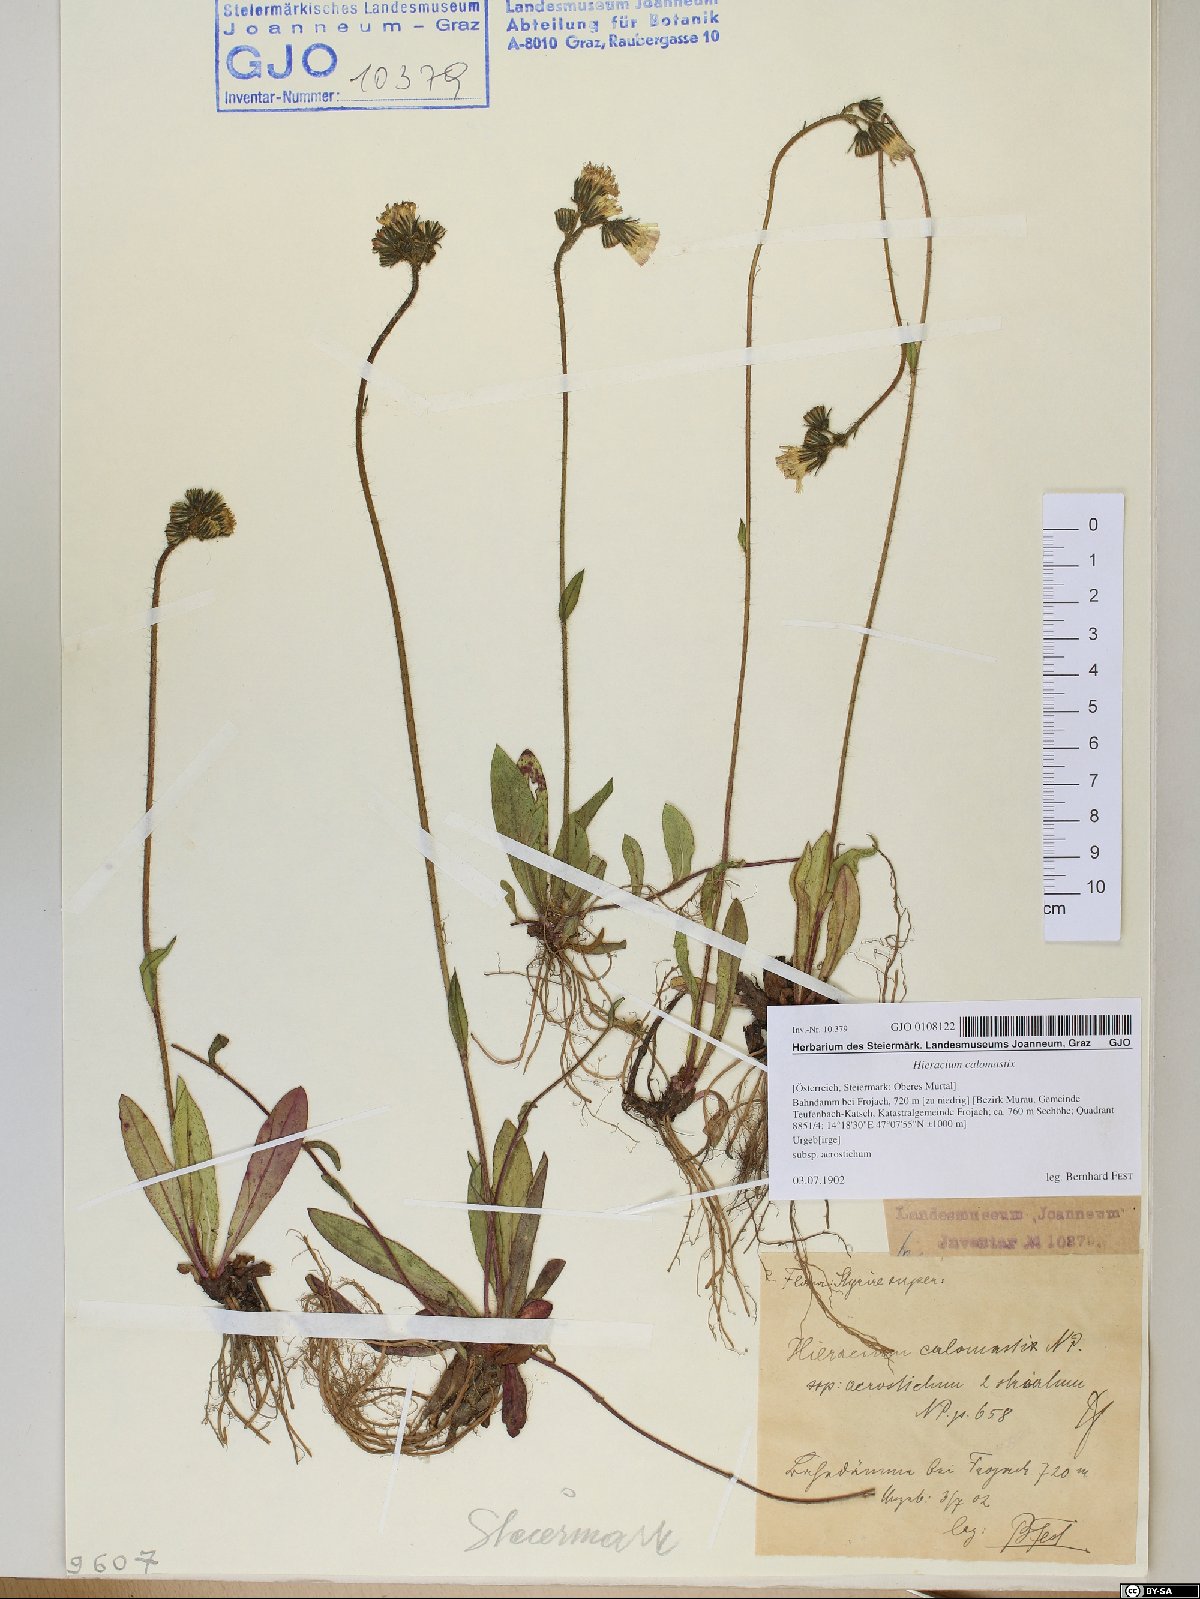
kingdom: Plantae
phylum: Tracheophyta
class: Magnoliopsida
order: Asterales
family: Asteraceae
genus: Pilosella
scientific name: Pilosella calomastix
